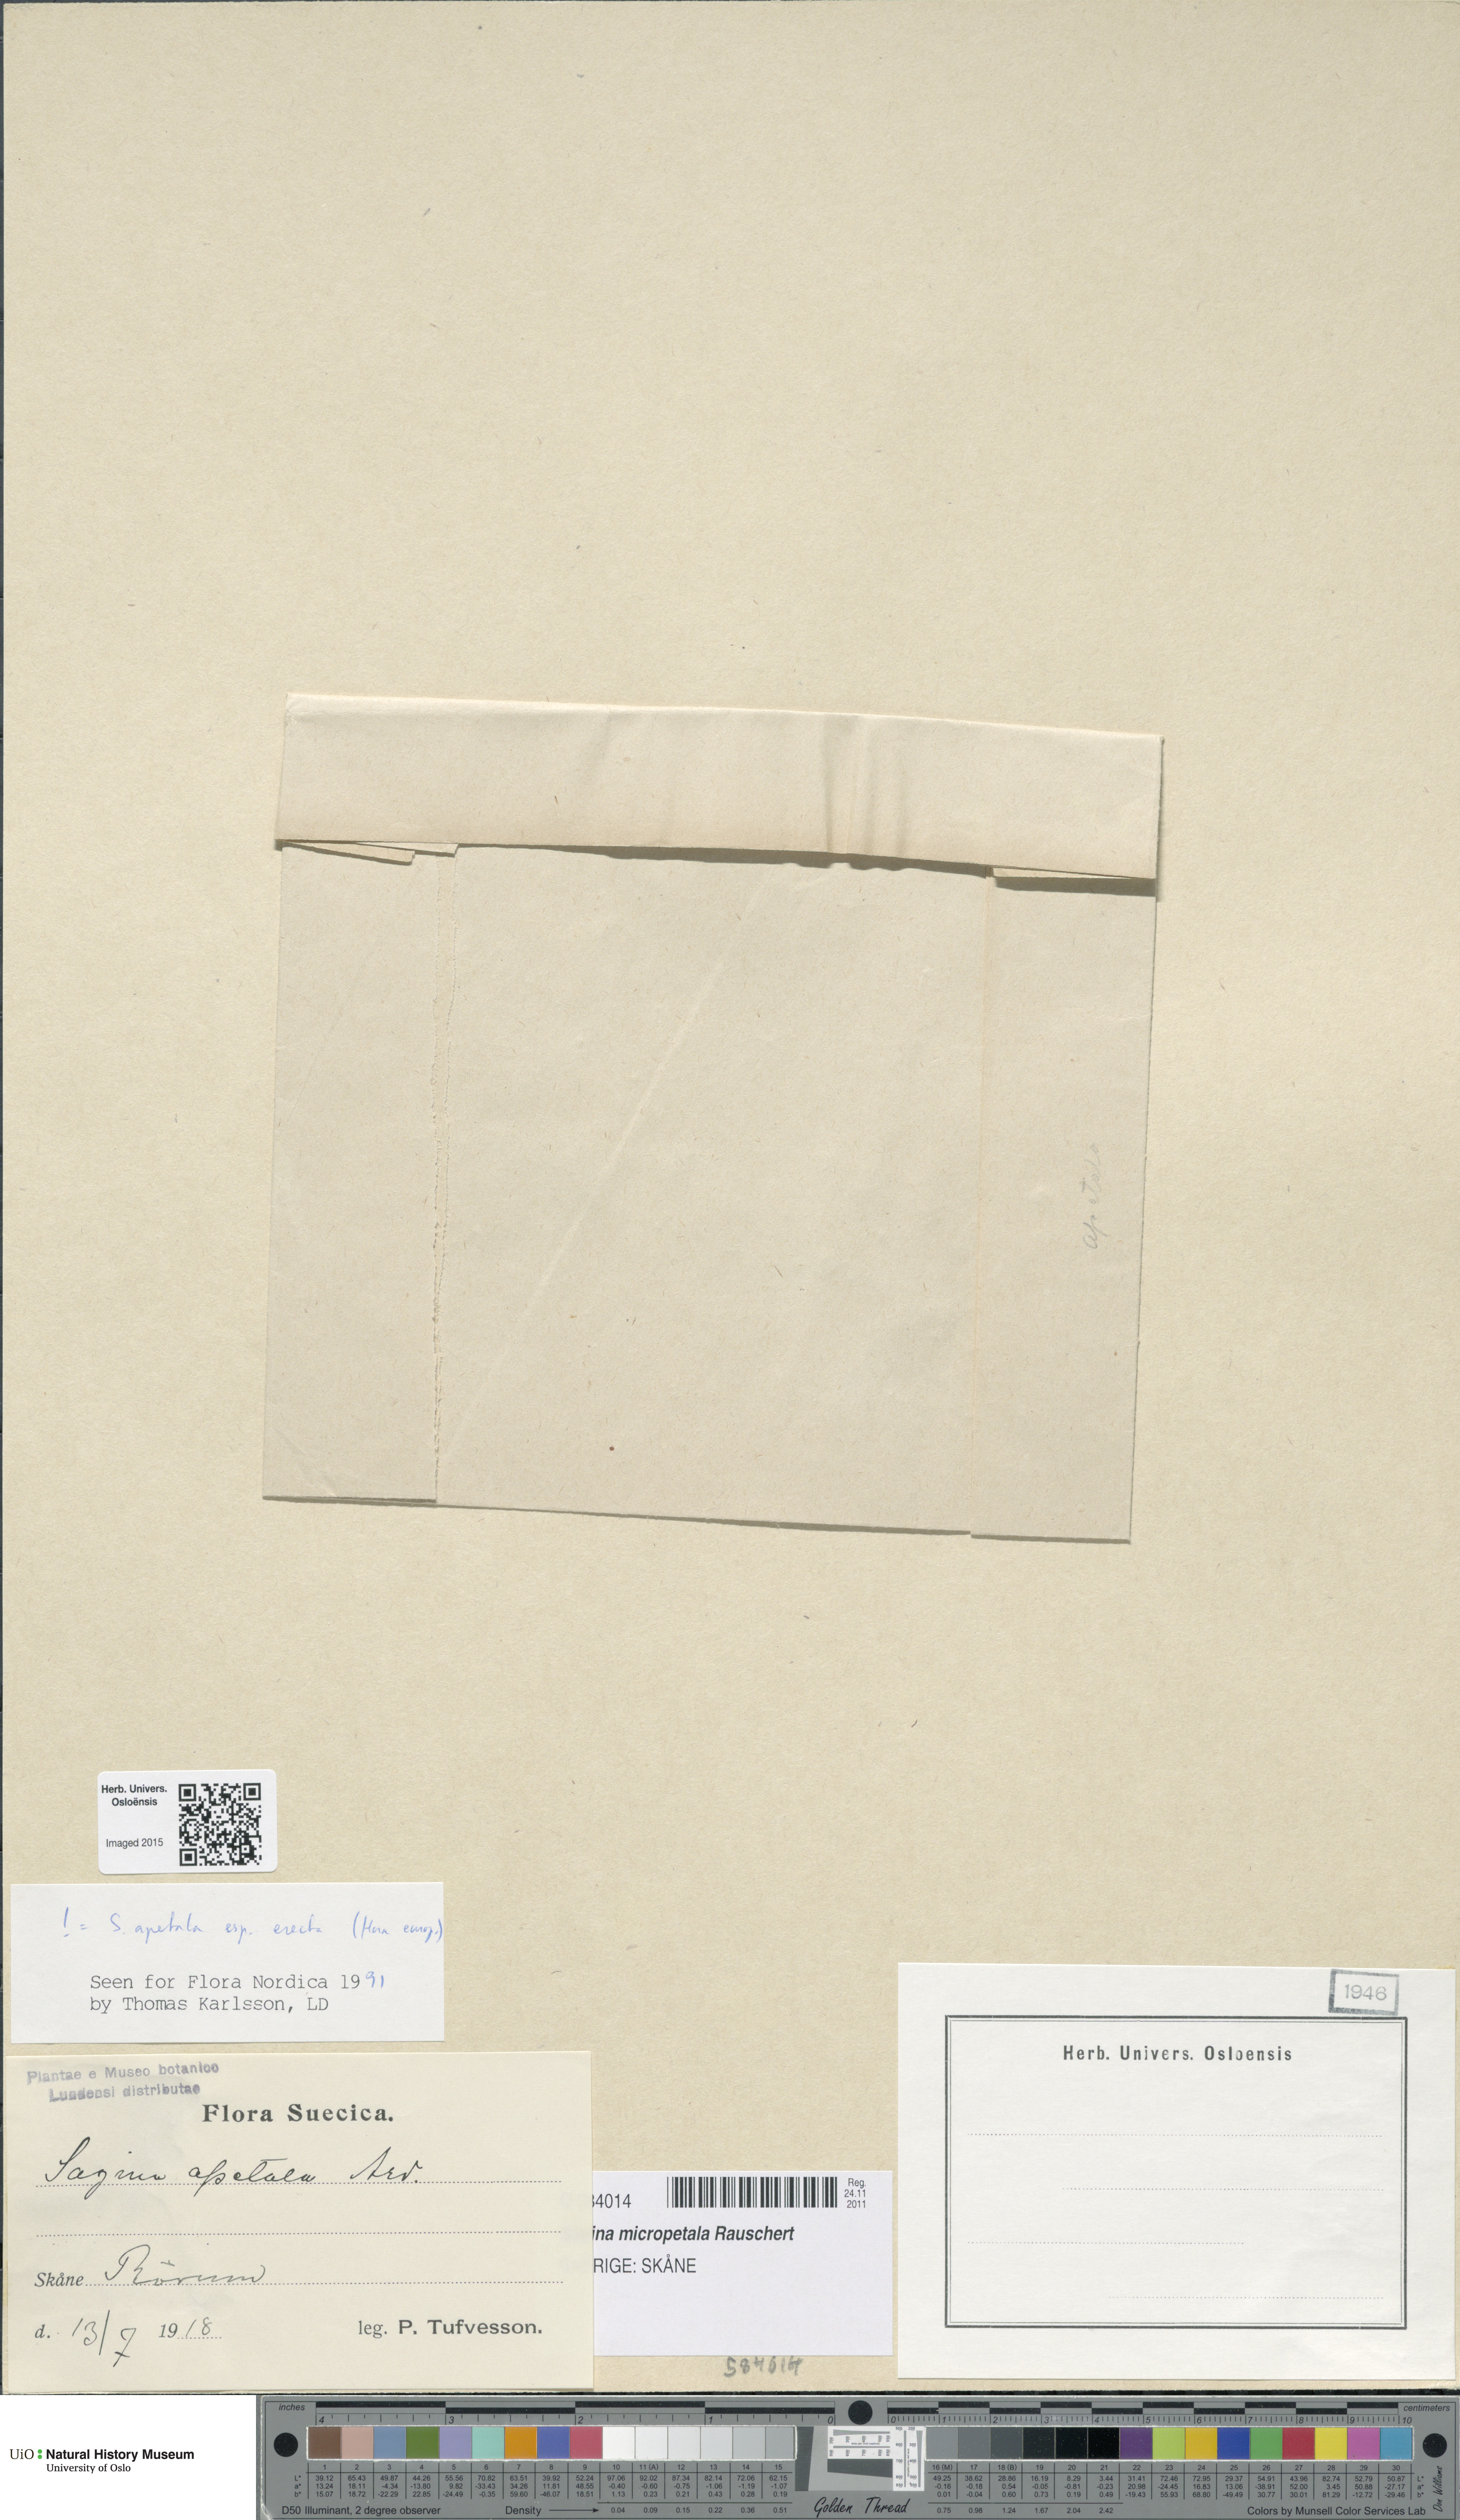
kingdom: Plantae
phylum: Tracheophyta
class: Magnoliopsida
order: Caryophyllales
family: Caryophyllaceae
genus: Sagina
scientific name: Sagina micropetala
